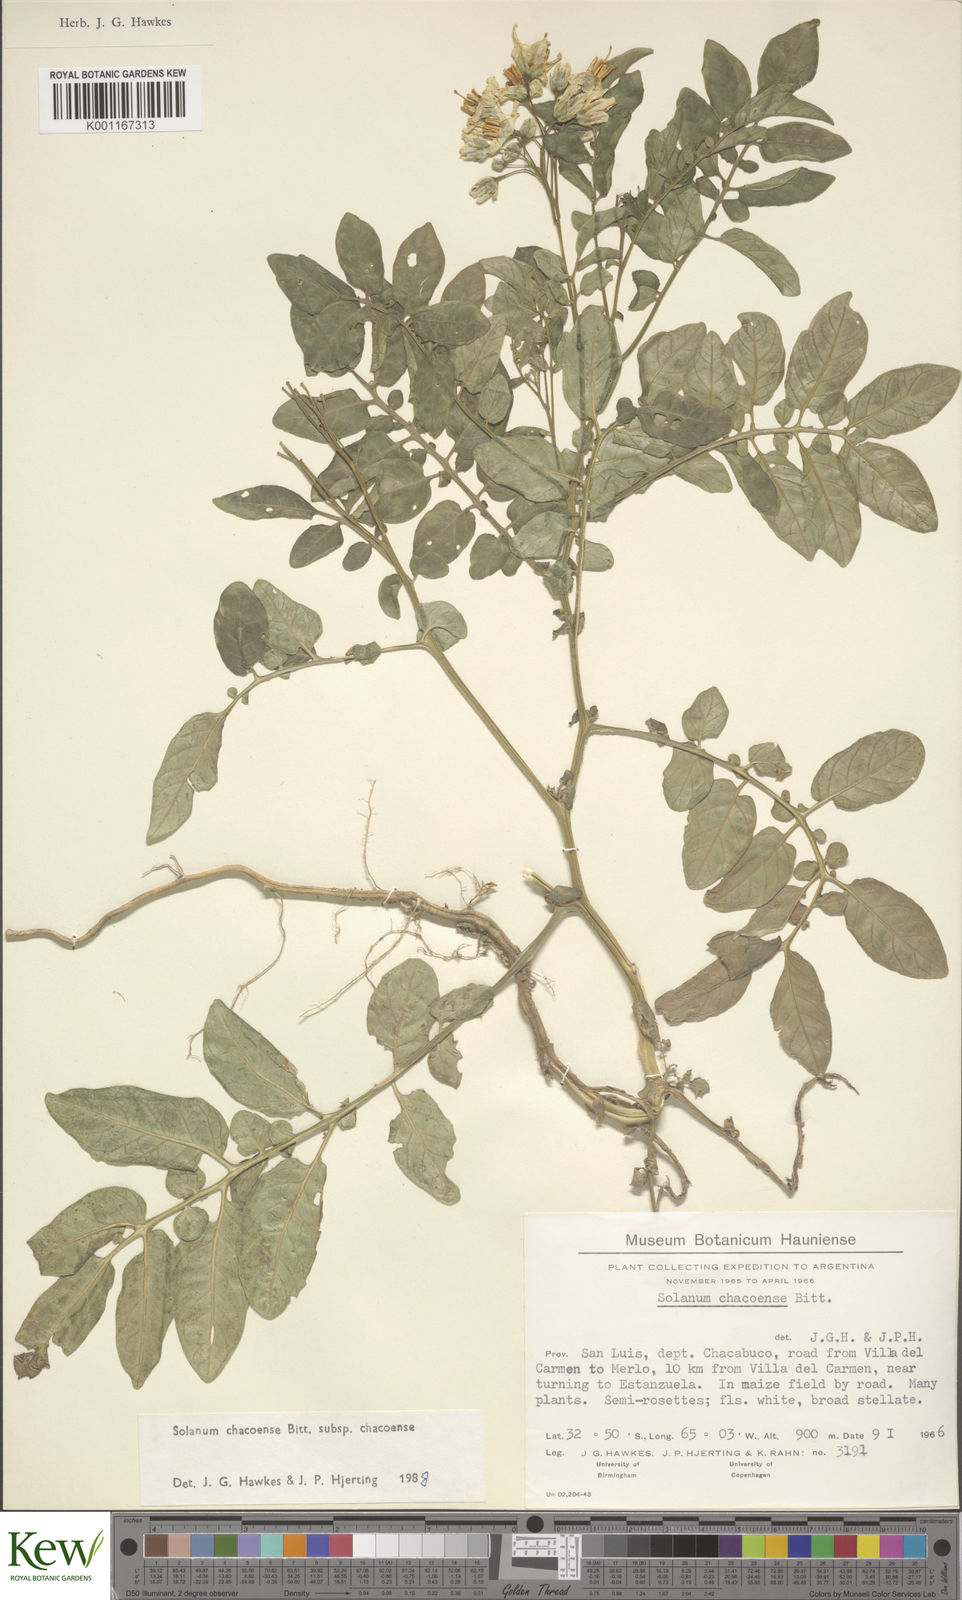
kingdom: Plantae
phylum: Tracheophyta
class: Magnoliopsida
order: Solanales
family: Solanaceae
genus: Solanum
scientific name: Solanum chacoense
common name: Chaco potato
